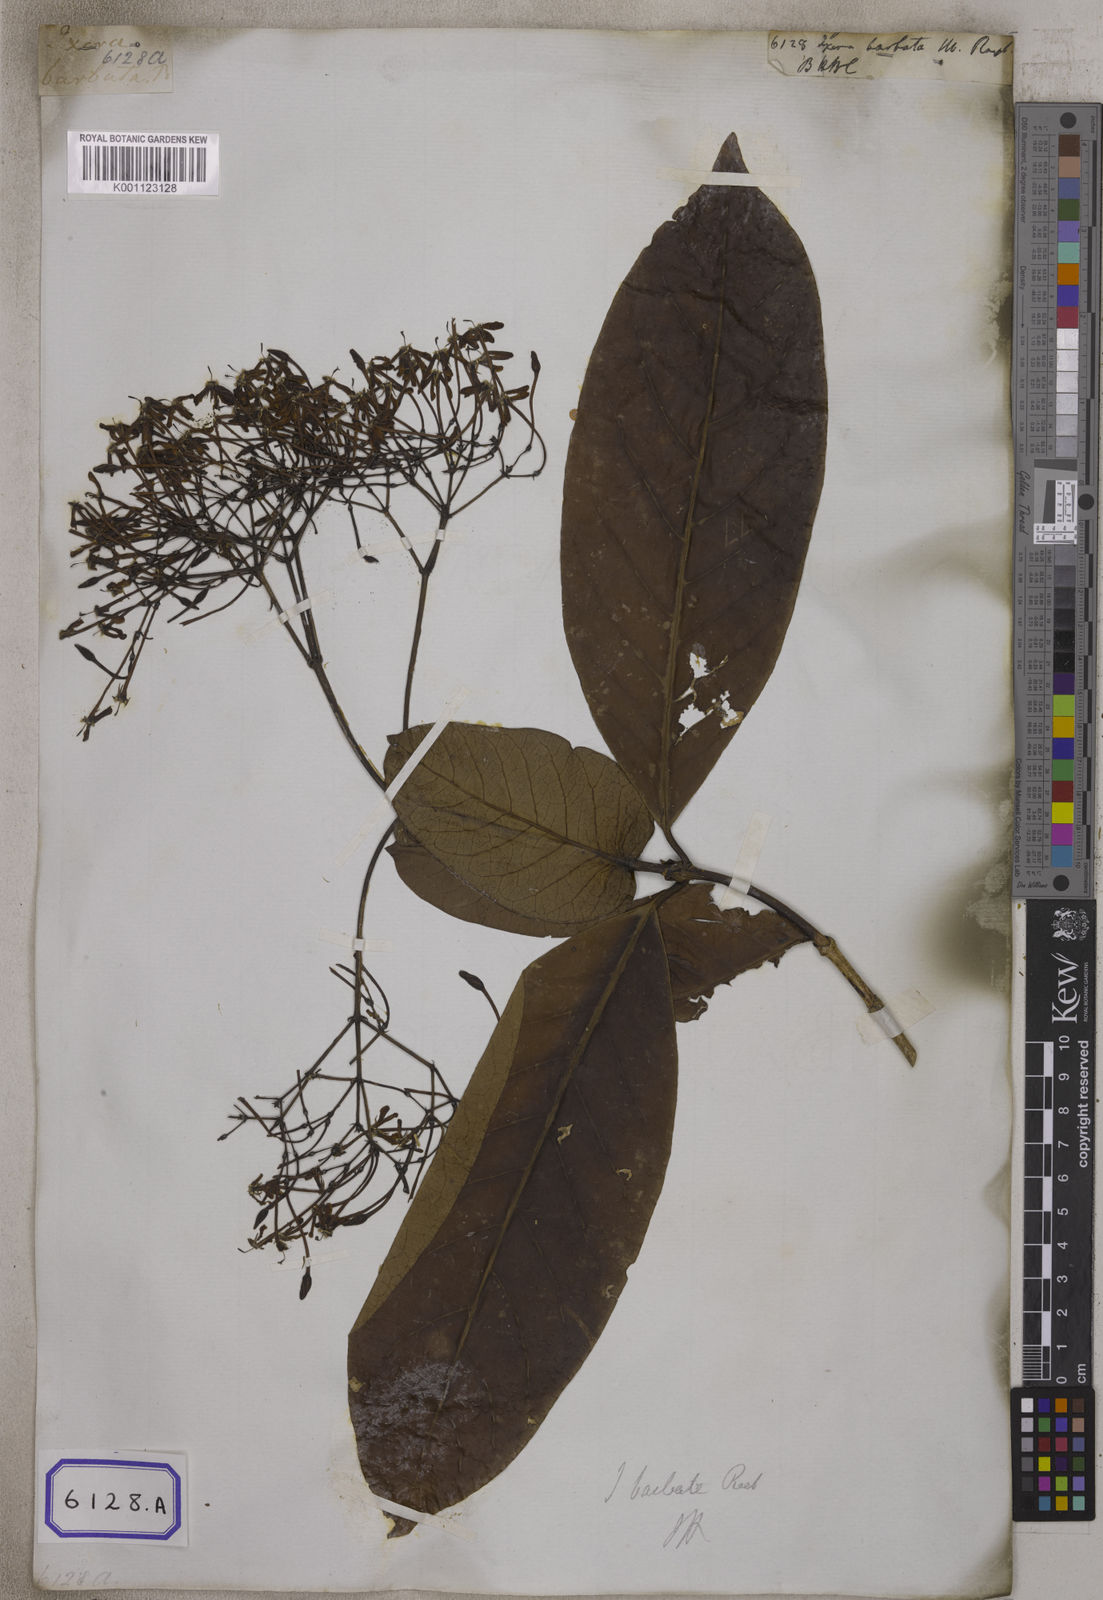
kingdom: Plantae
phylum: Tracheophyta
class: Magnoliopsida
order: Gentianales
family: Rubiaceae
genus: Ixora
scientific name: Ixora
